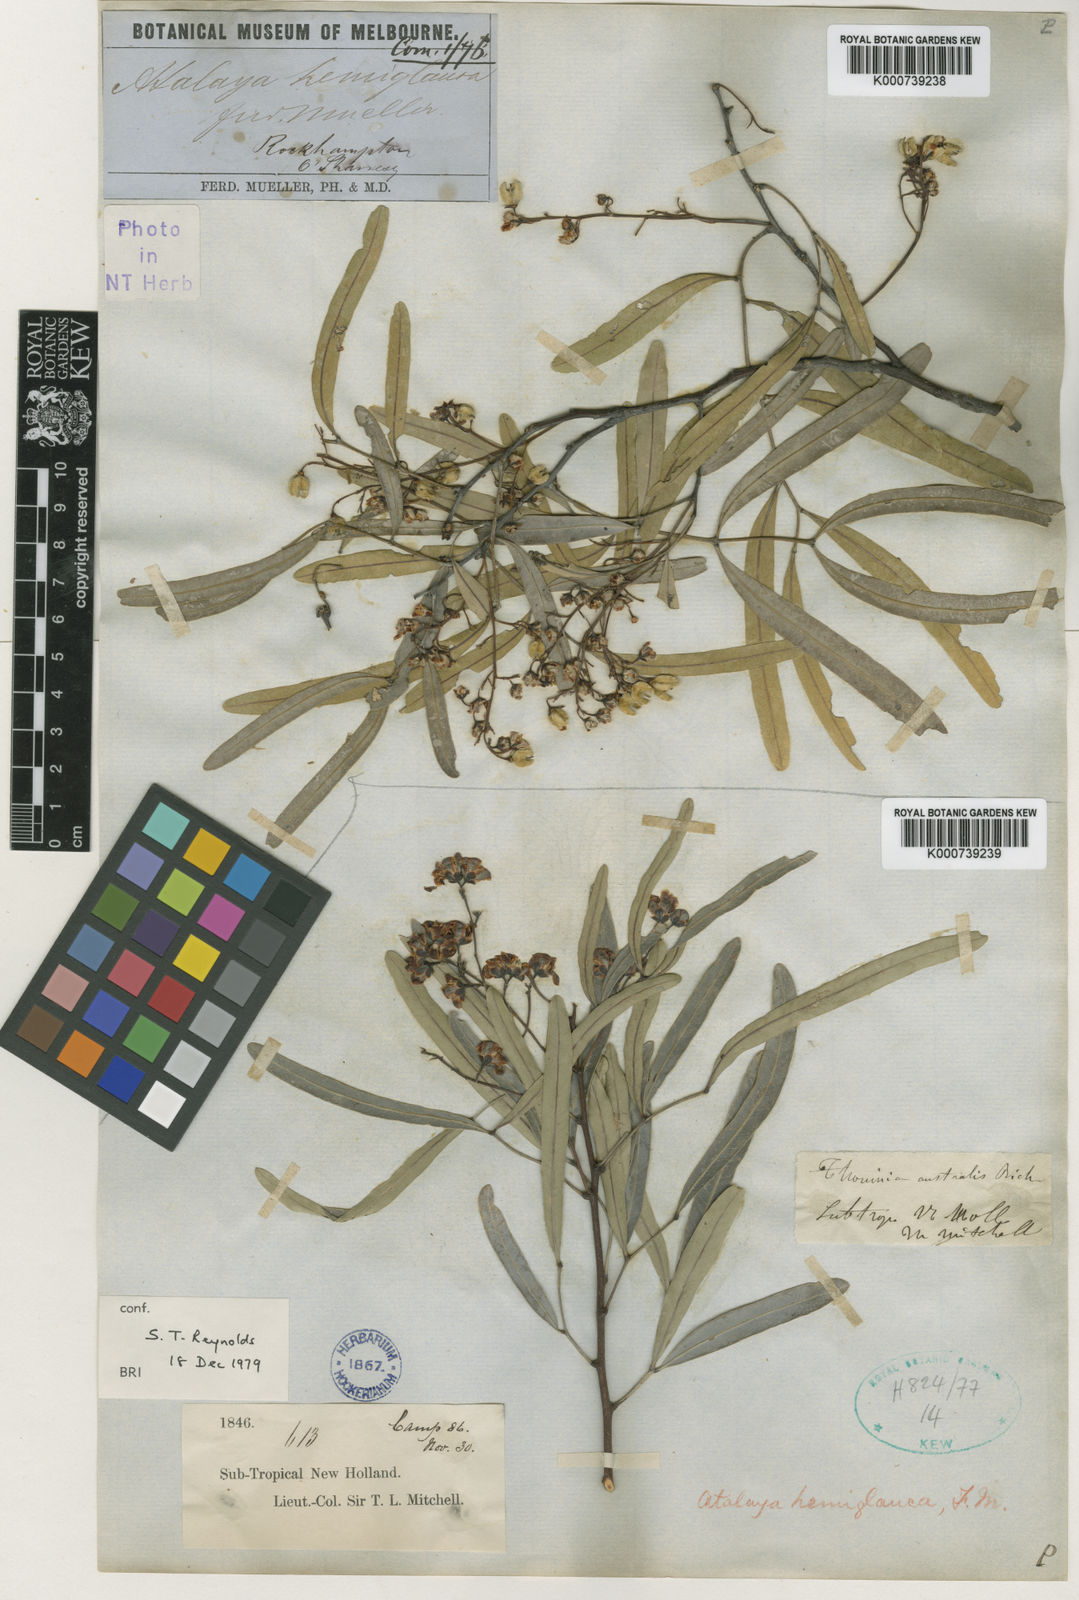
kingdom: Plantae
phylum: Tracheophyta
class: Magnoliopsida
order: Sapindales
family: Sapindaceae
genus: Atalaya
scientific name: Atalaya hemiglauca
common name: Western whitewood
